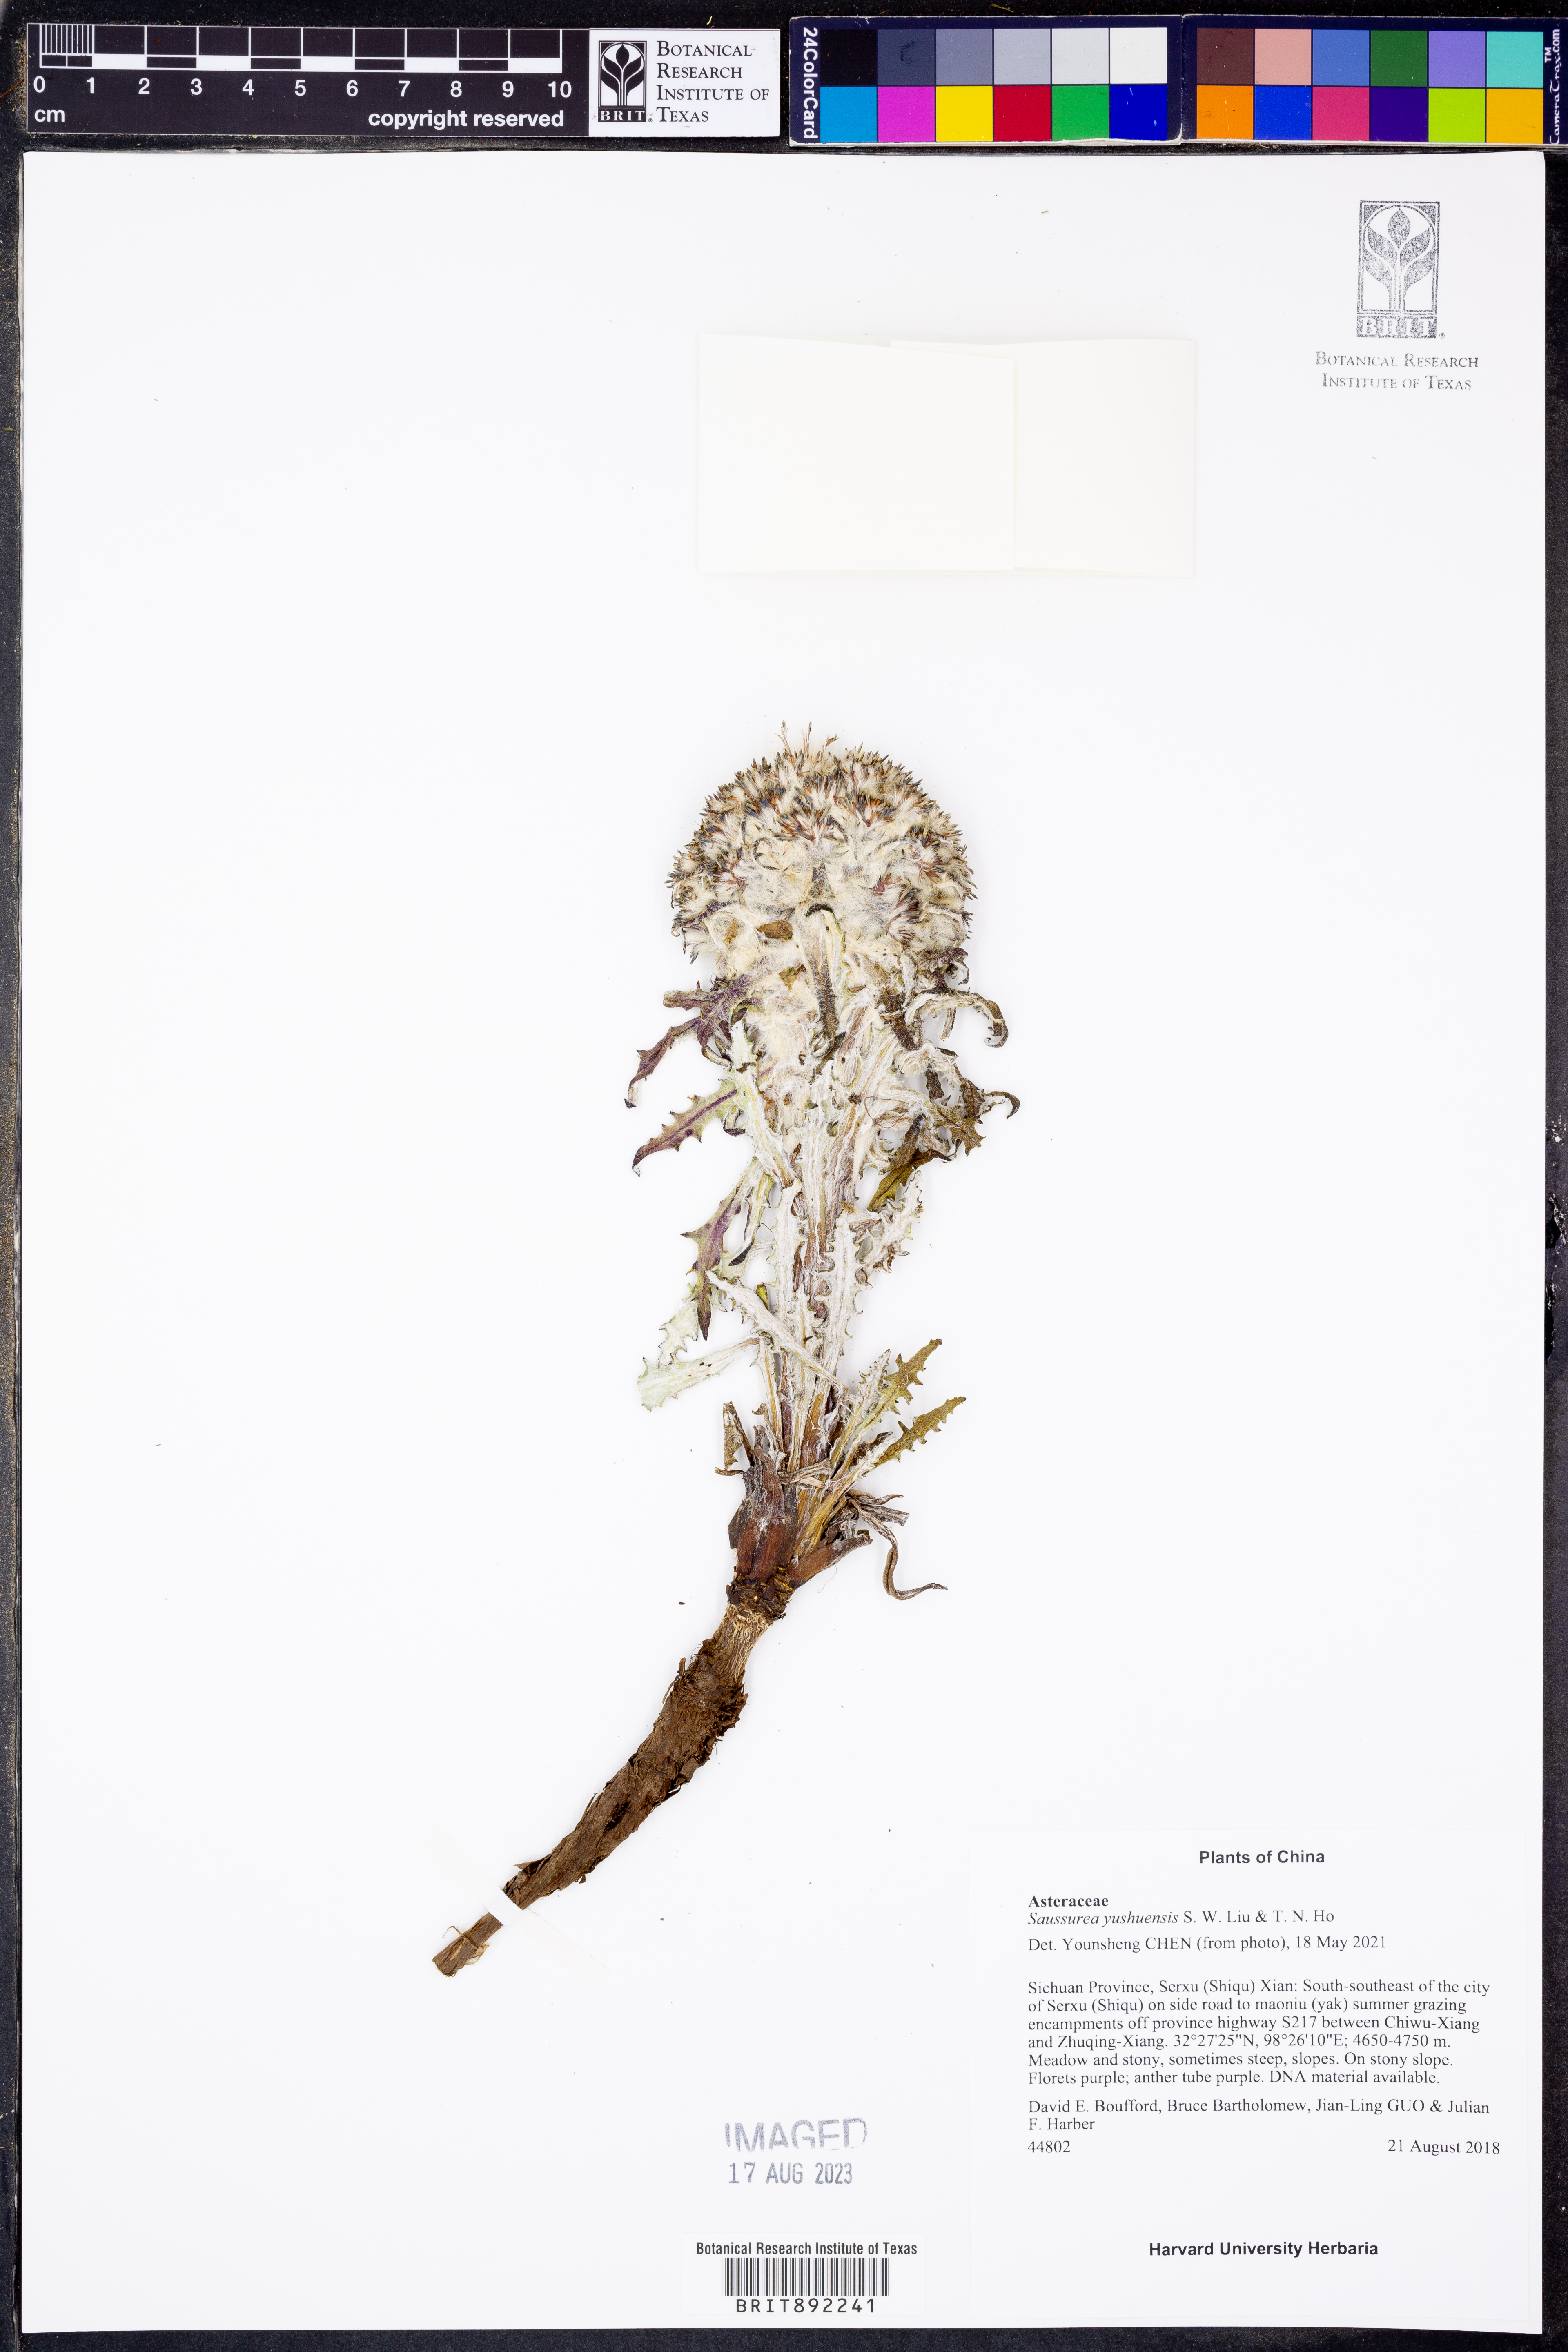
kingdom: Plantae
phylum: Tracheophyta
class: Magnoliopsida
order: Asterales
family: Asteraceae
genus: Saussurea
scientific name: Saussurea simpsoniana
